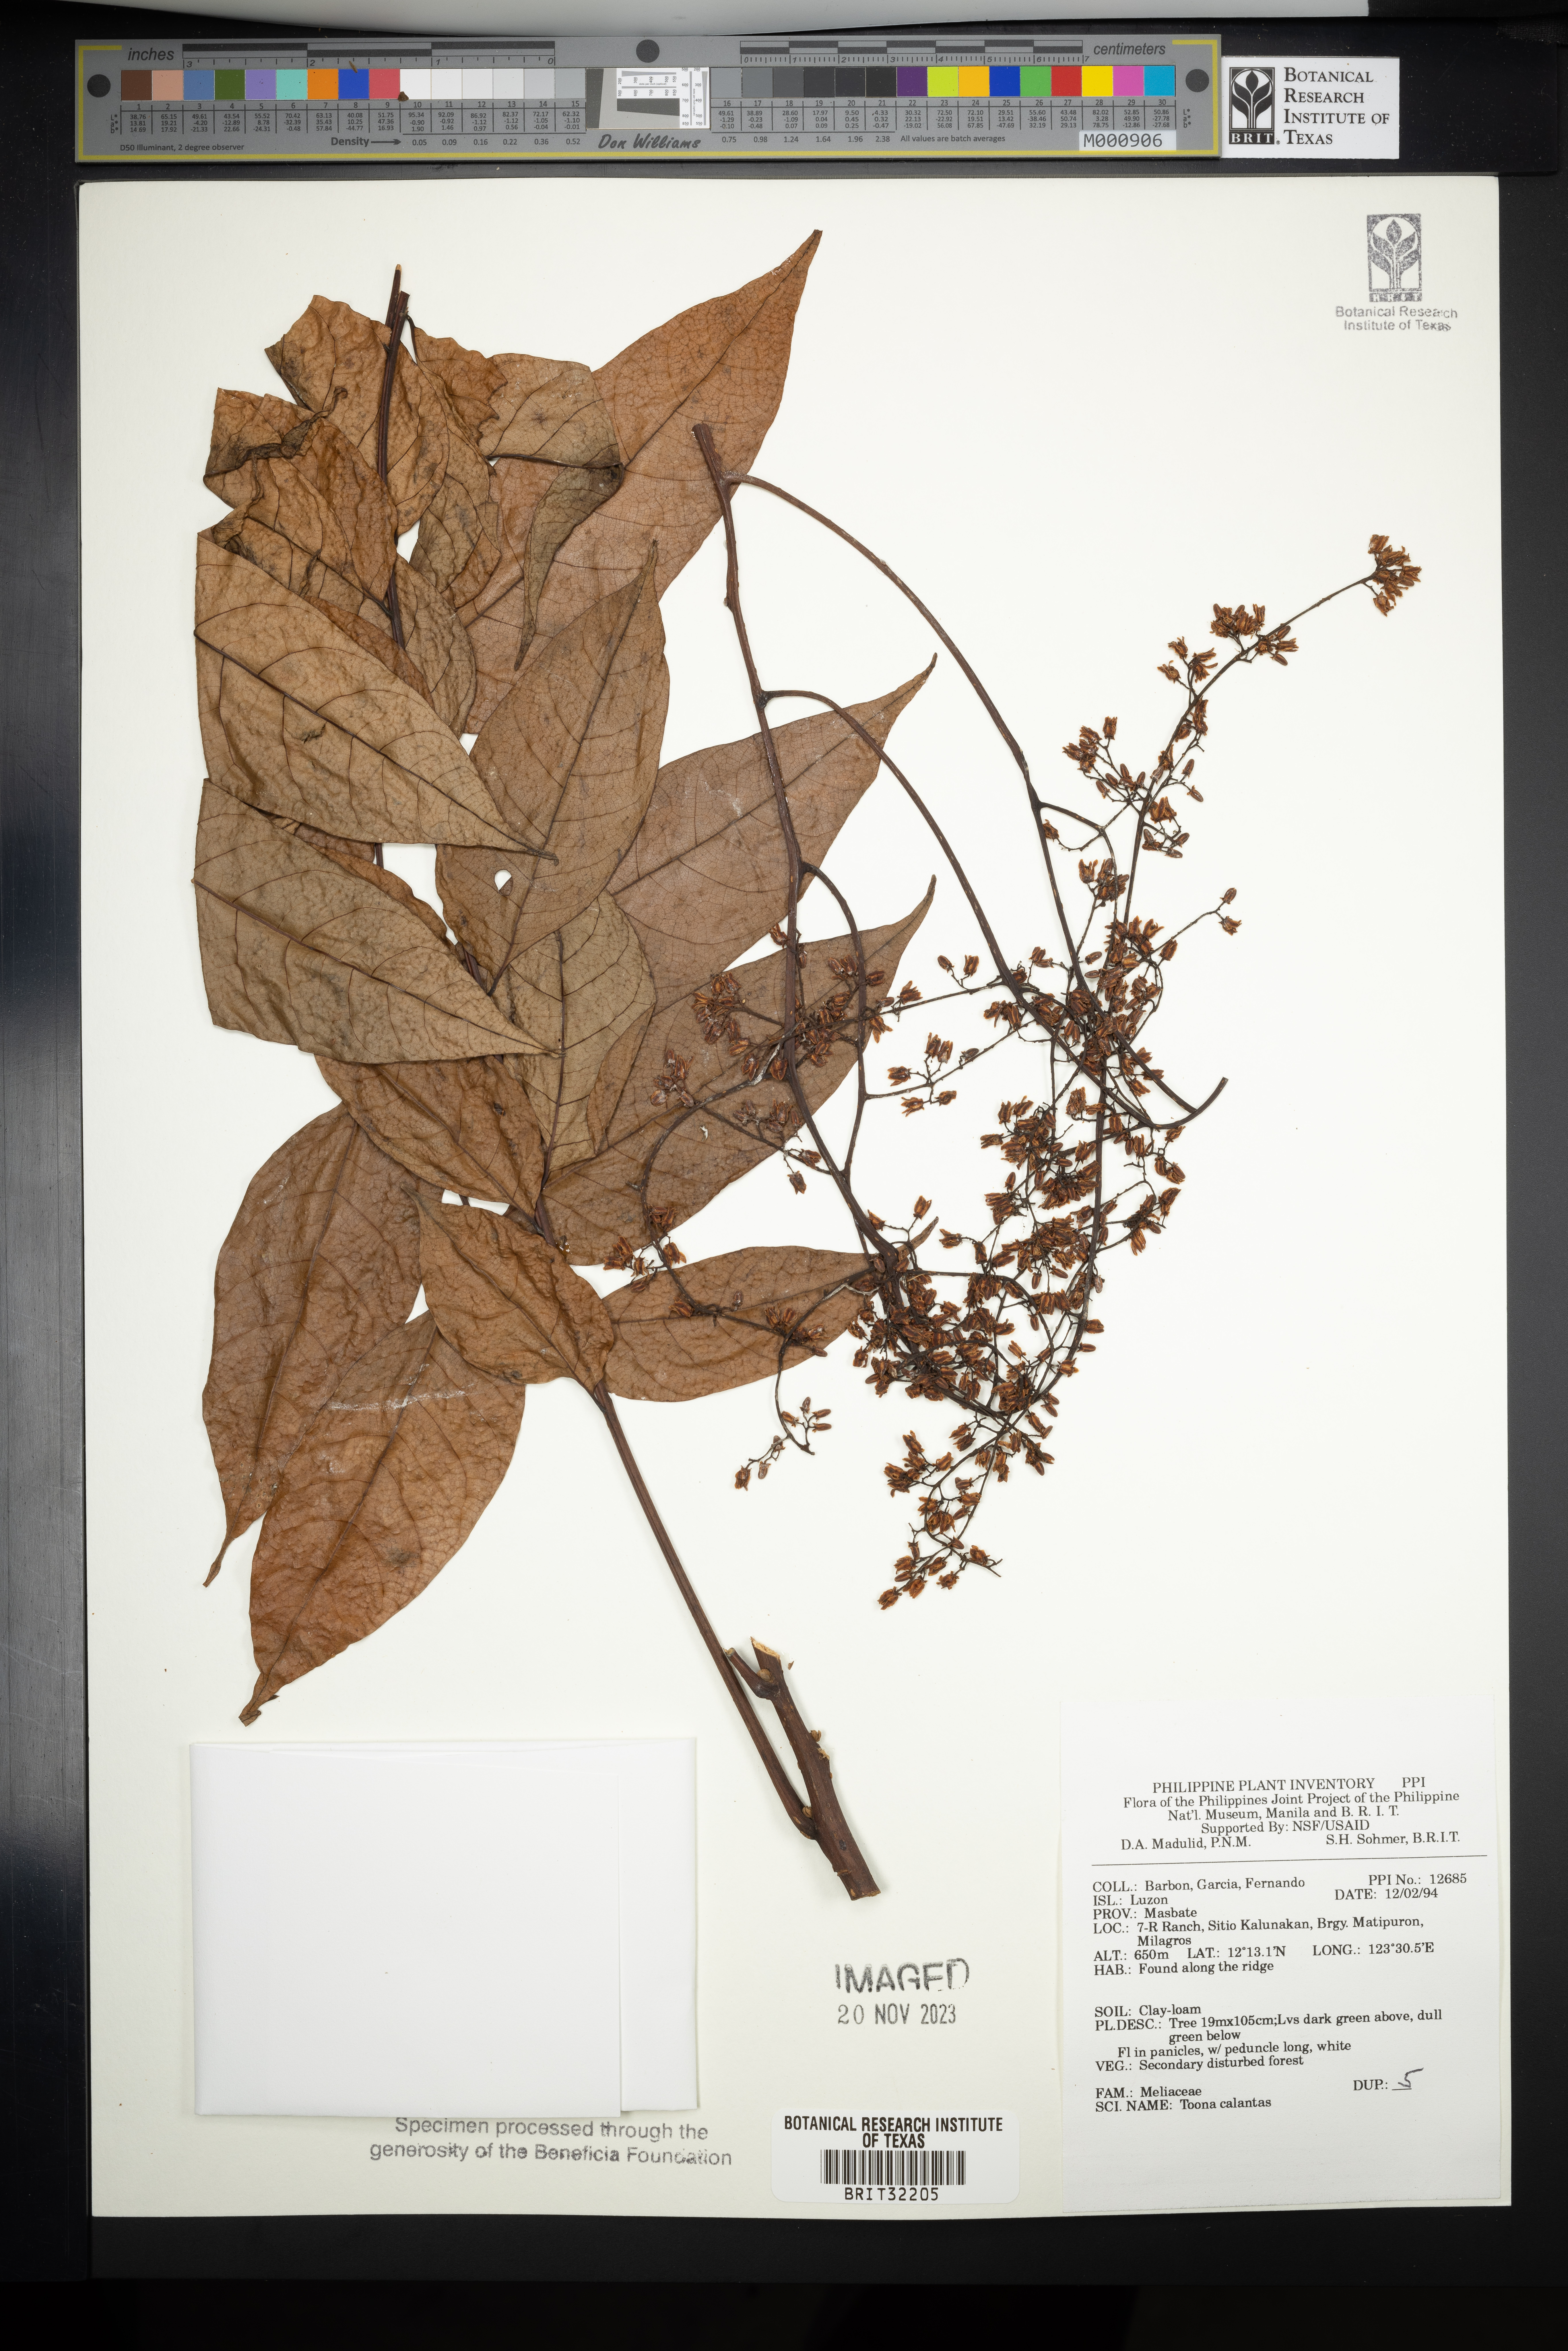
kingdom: Plantae
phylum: Tracheophyta
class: Magnoliopsida
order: Sapindales
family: Meliaceae
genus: Toona
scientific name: Toona calantas
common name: Philippine cedar
